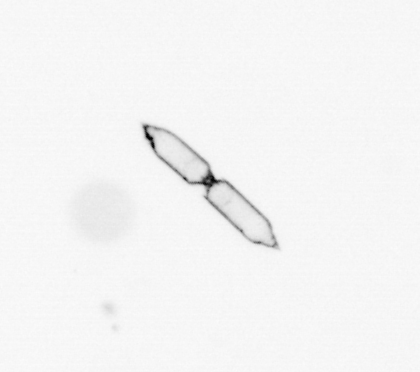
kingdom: Chromista
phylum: Ochrophyta
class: Bacillariophyceae
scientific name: Bacillariophyceae
